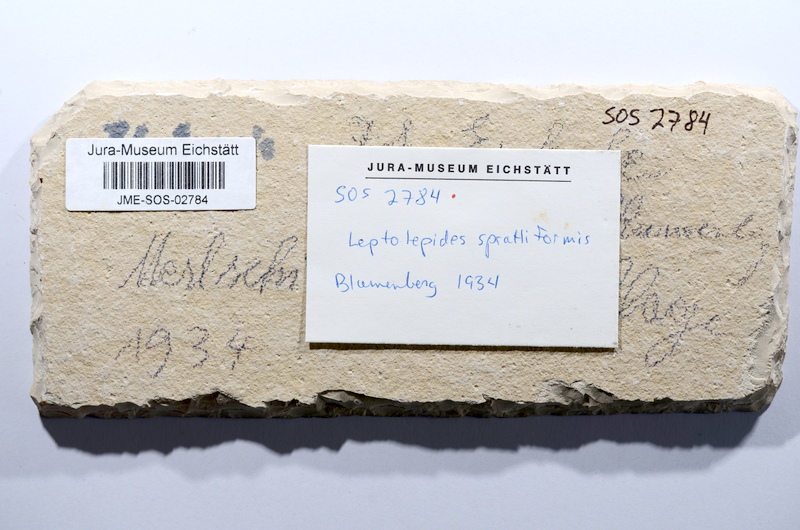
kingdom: Animalia
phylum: Chordata
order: Salmoniformes
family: Orthogonikleithridae
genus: Leptolepides
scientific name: Leptolepides sprattiformis
